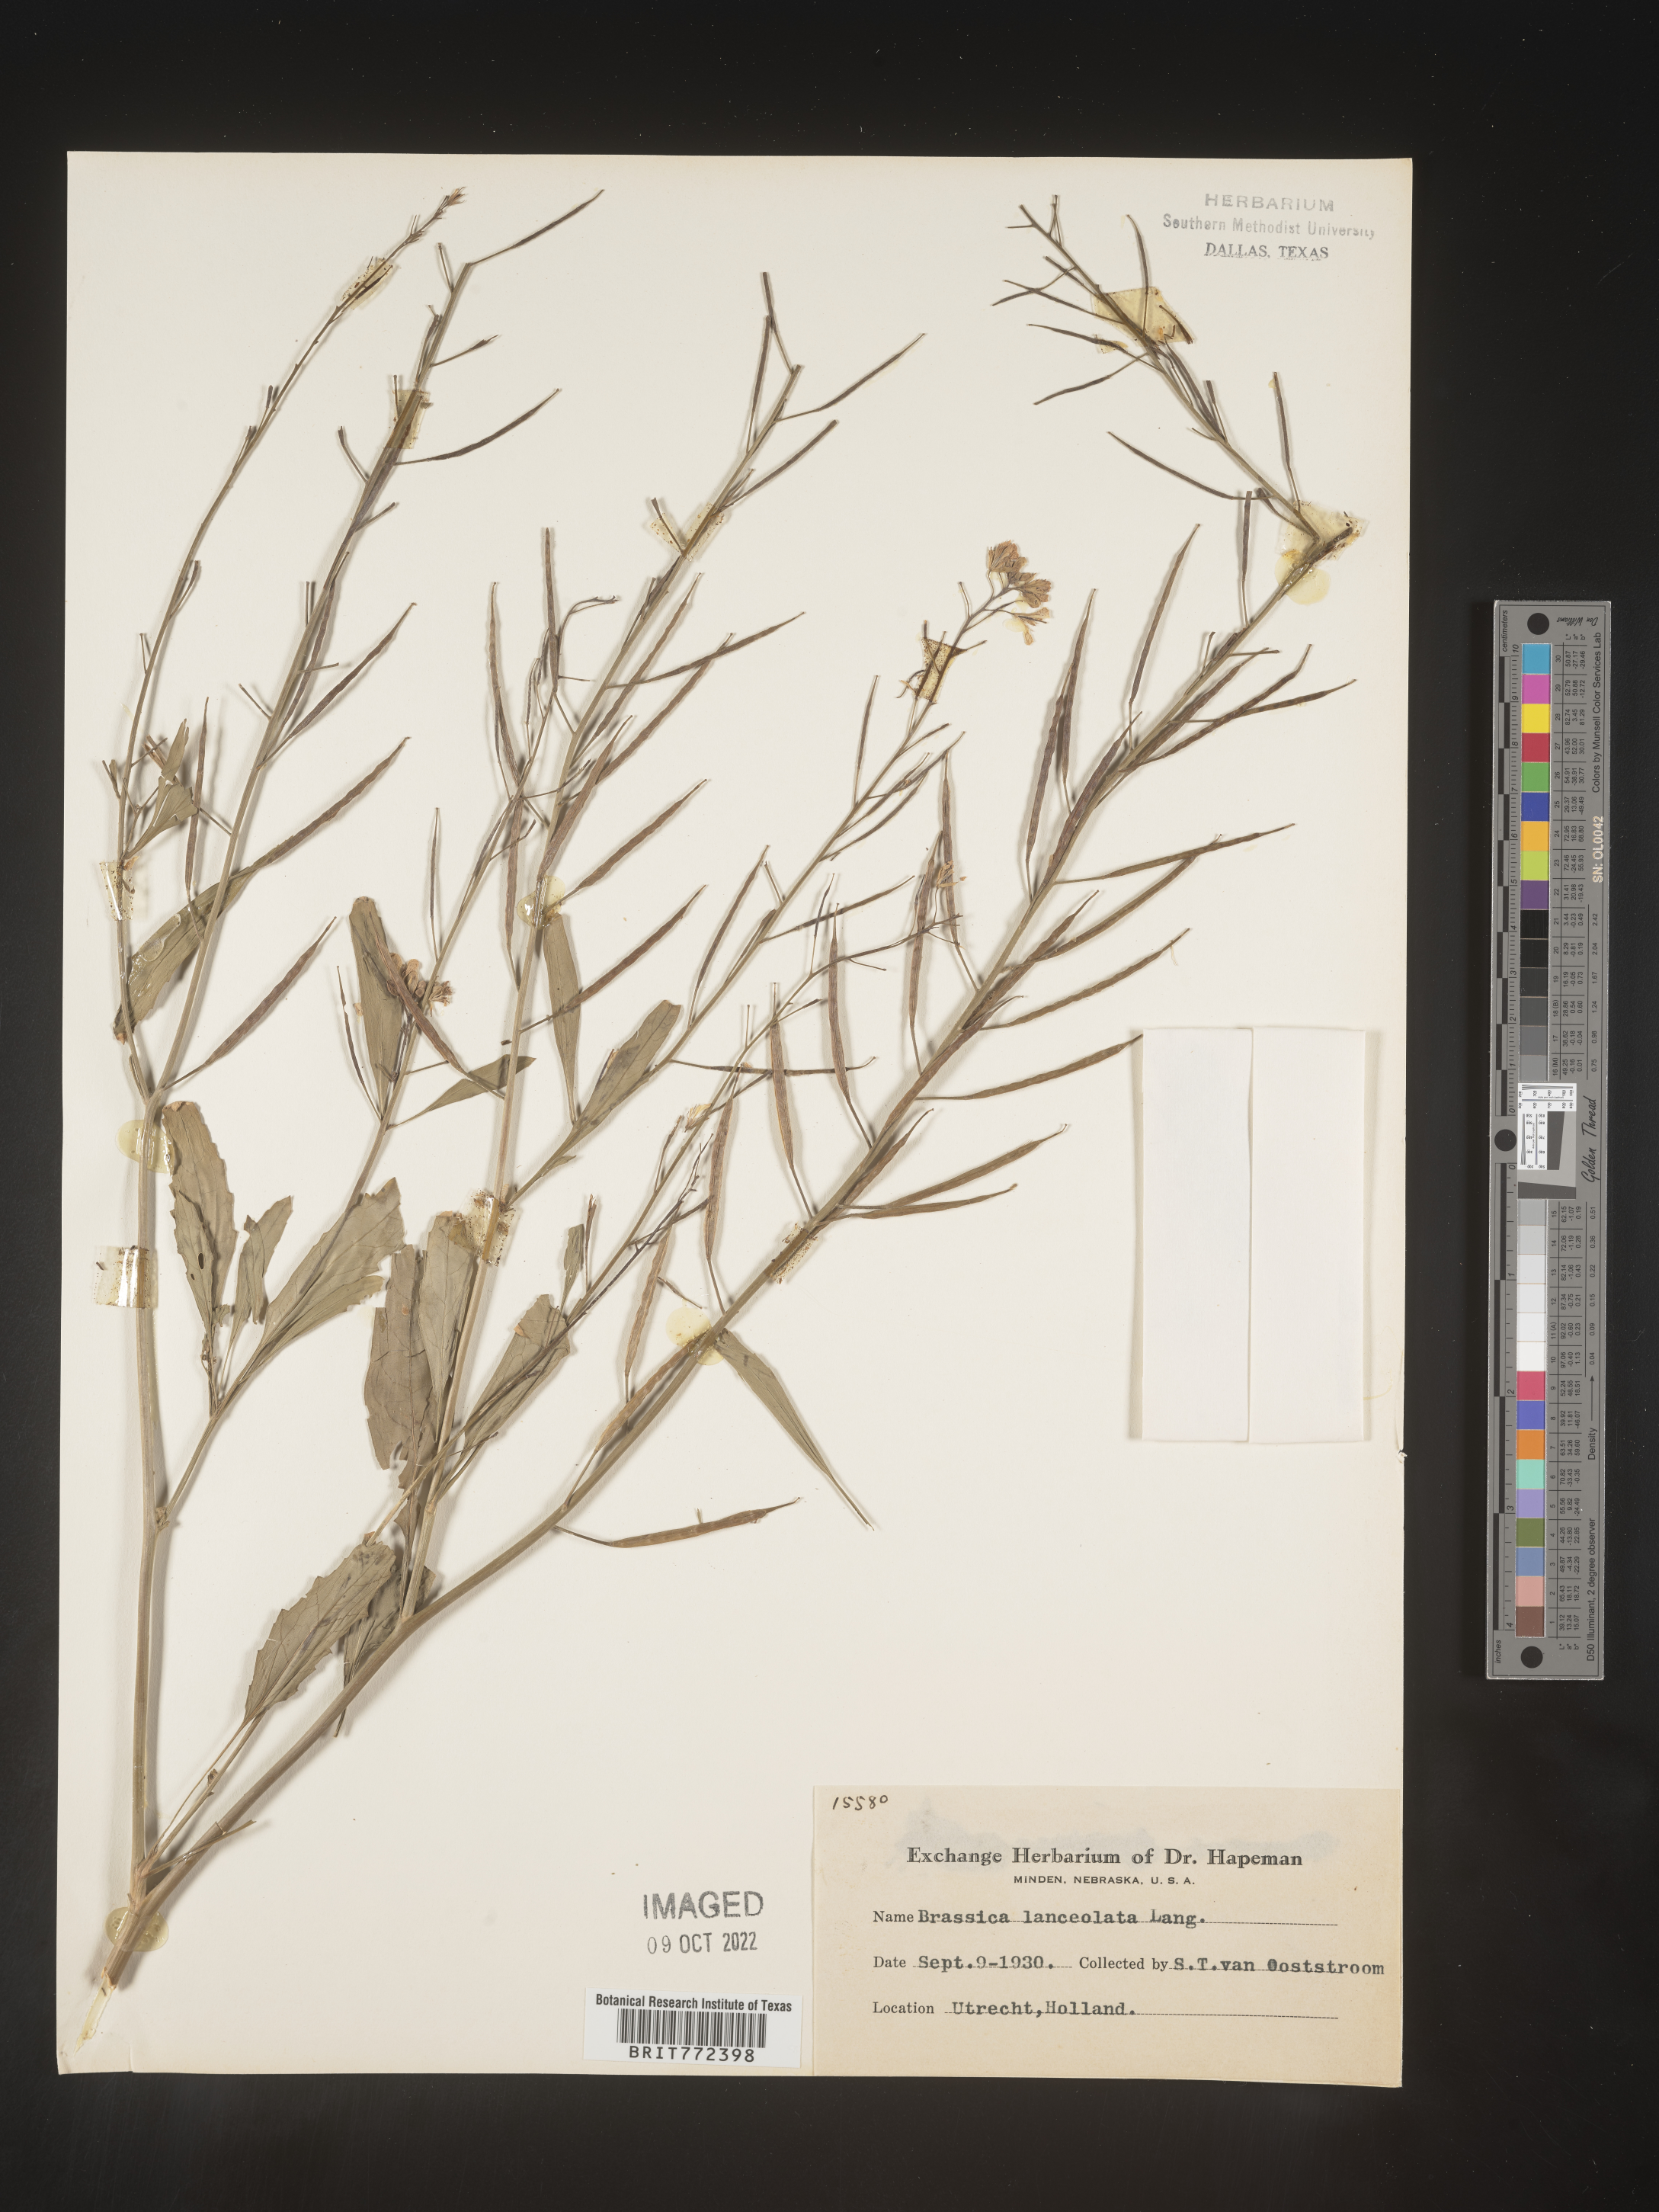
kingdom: Plantae
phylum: Tracheophyta
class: Magnoliopsida
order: Brassicales
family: Brassicaceae
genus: Brassica
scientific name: Brassica
